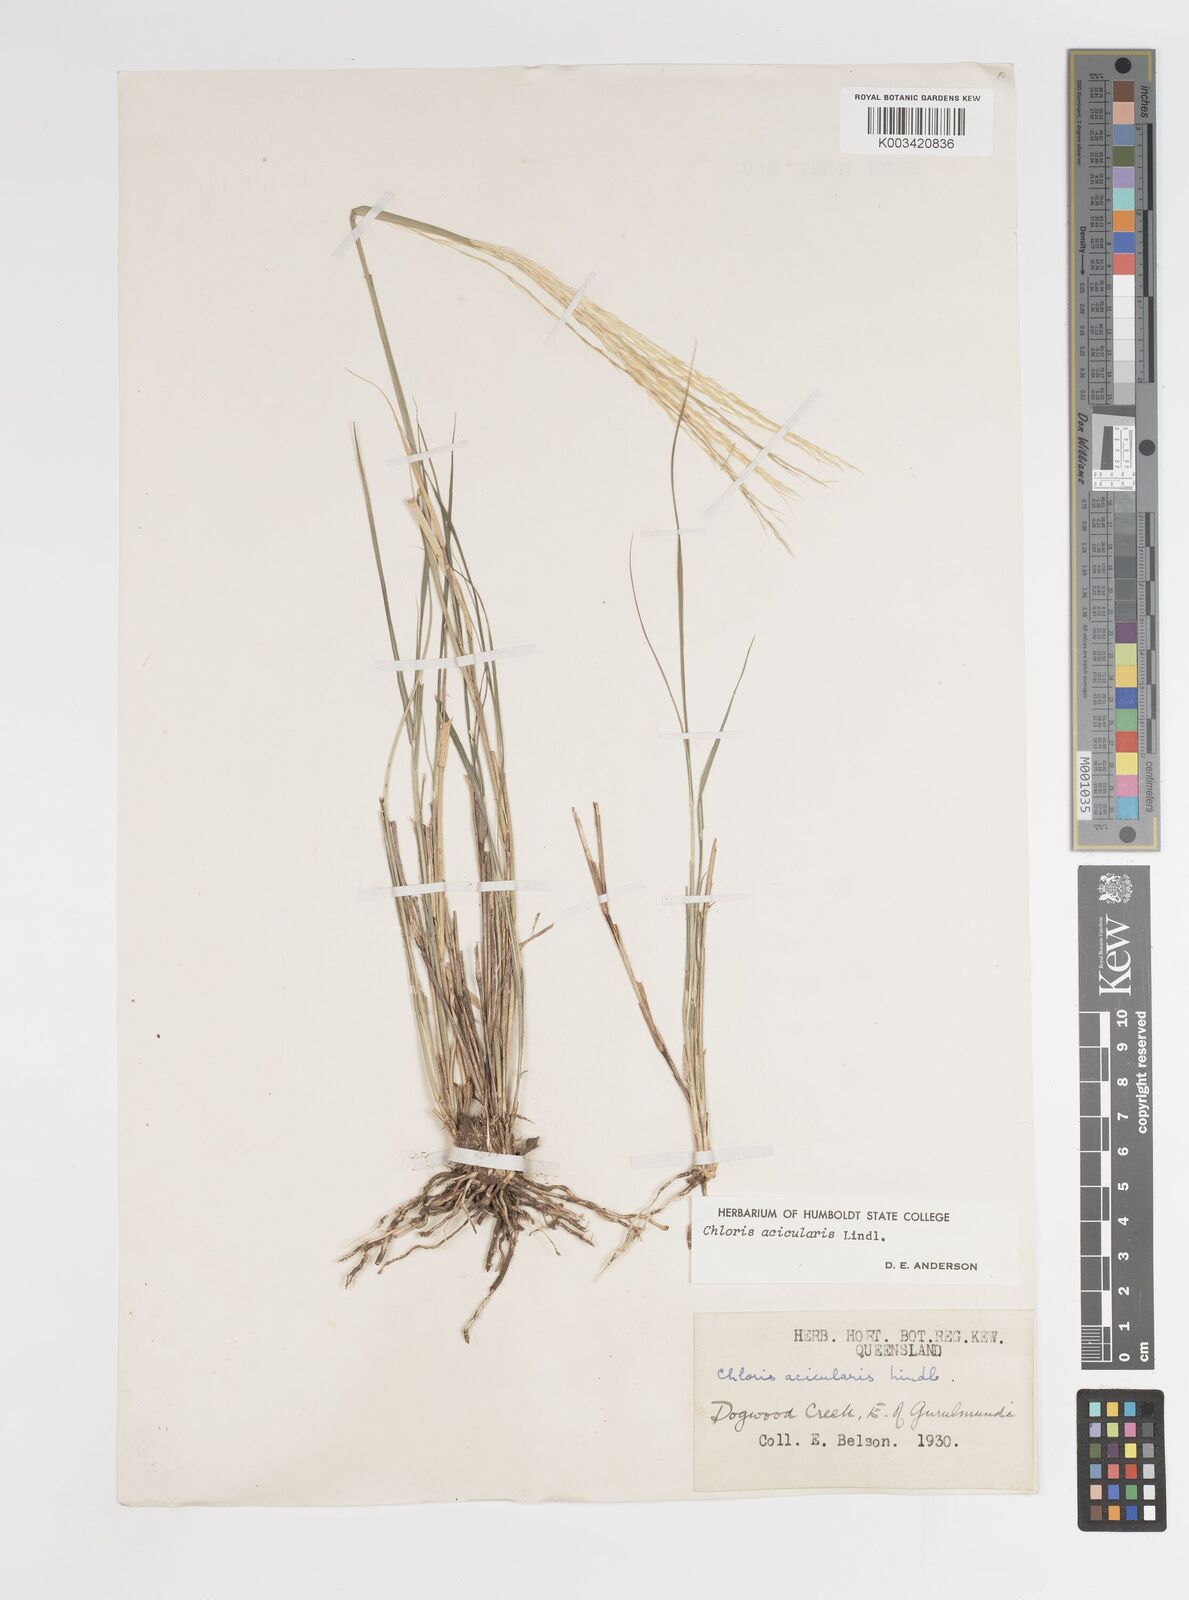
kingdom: Plantae
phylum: Tracheophyta
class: Liliopsida
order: Poales
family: Poaceae
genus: Enteropogon
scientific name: Enteropogon acicularis
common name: Curly windmill grass
